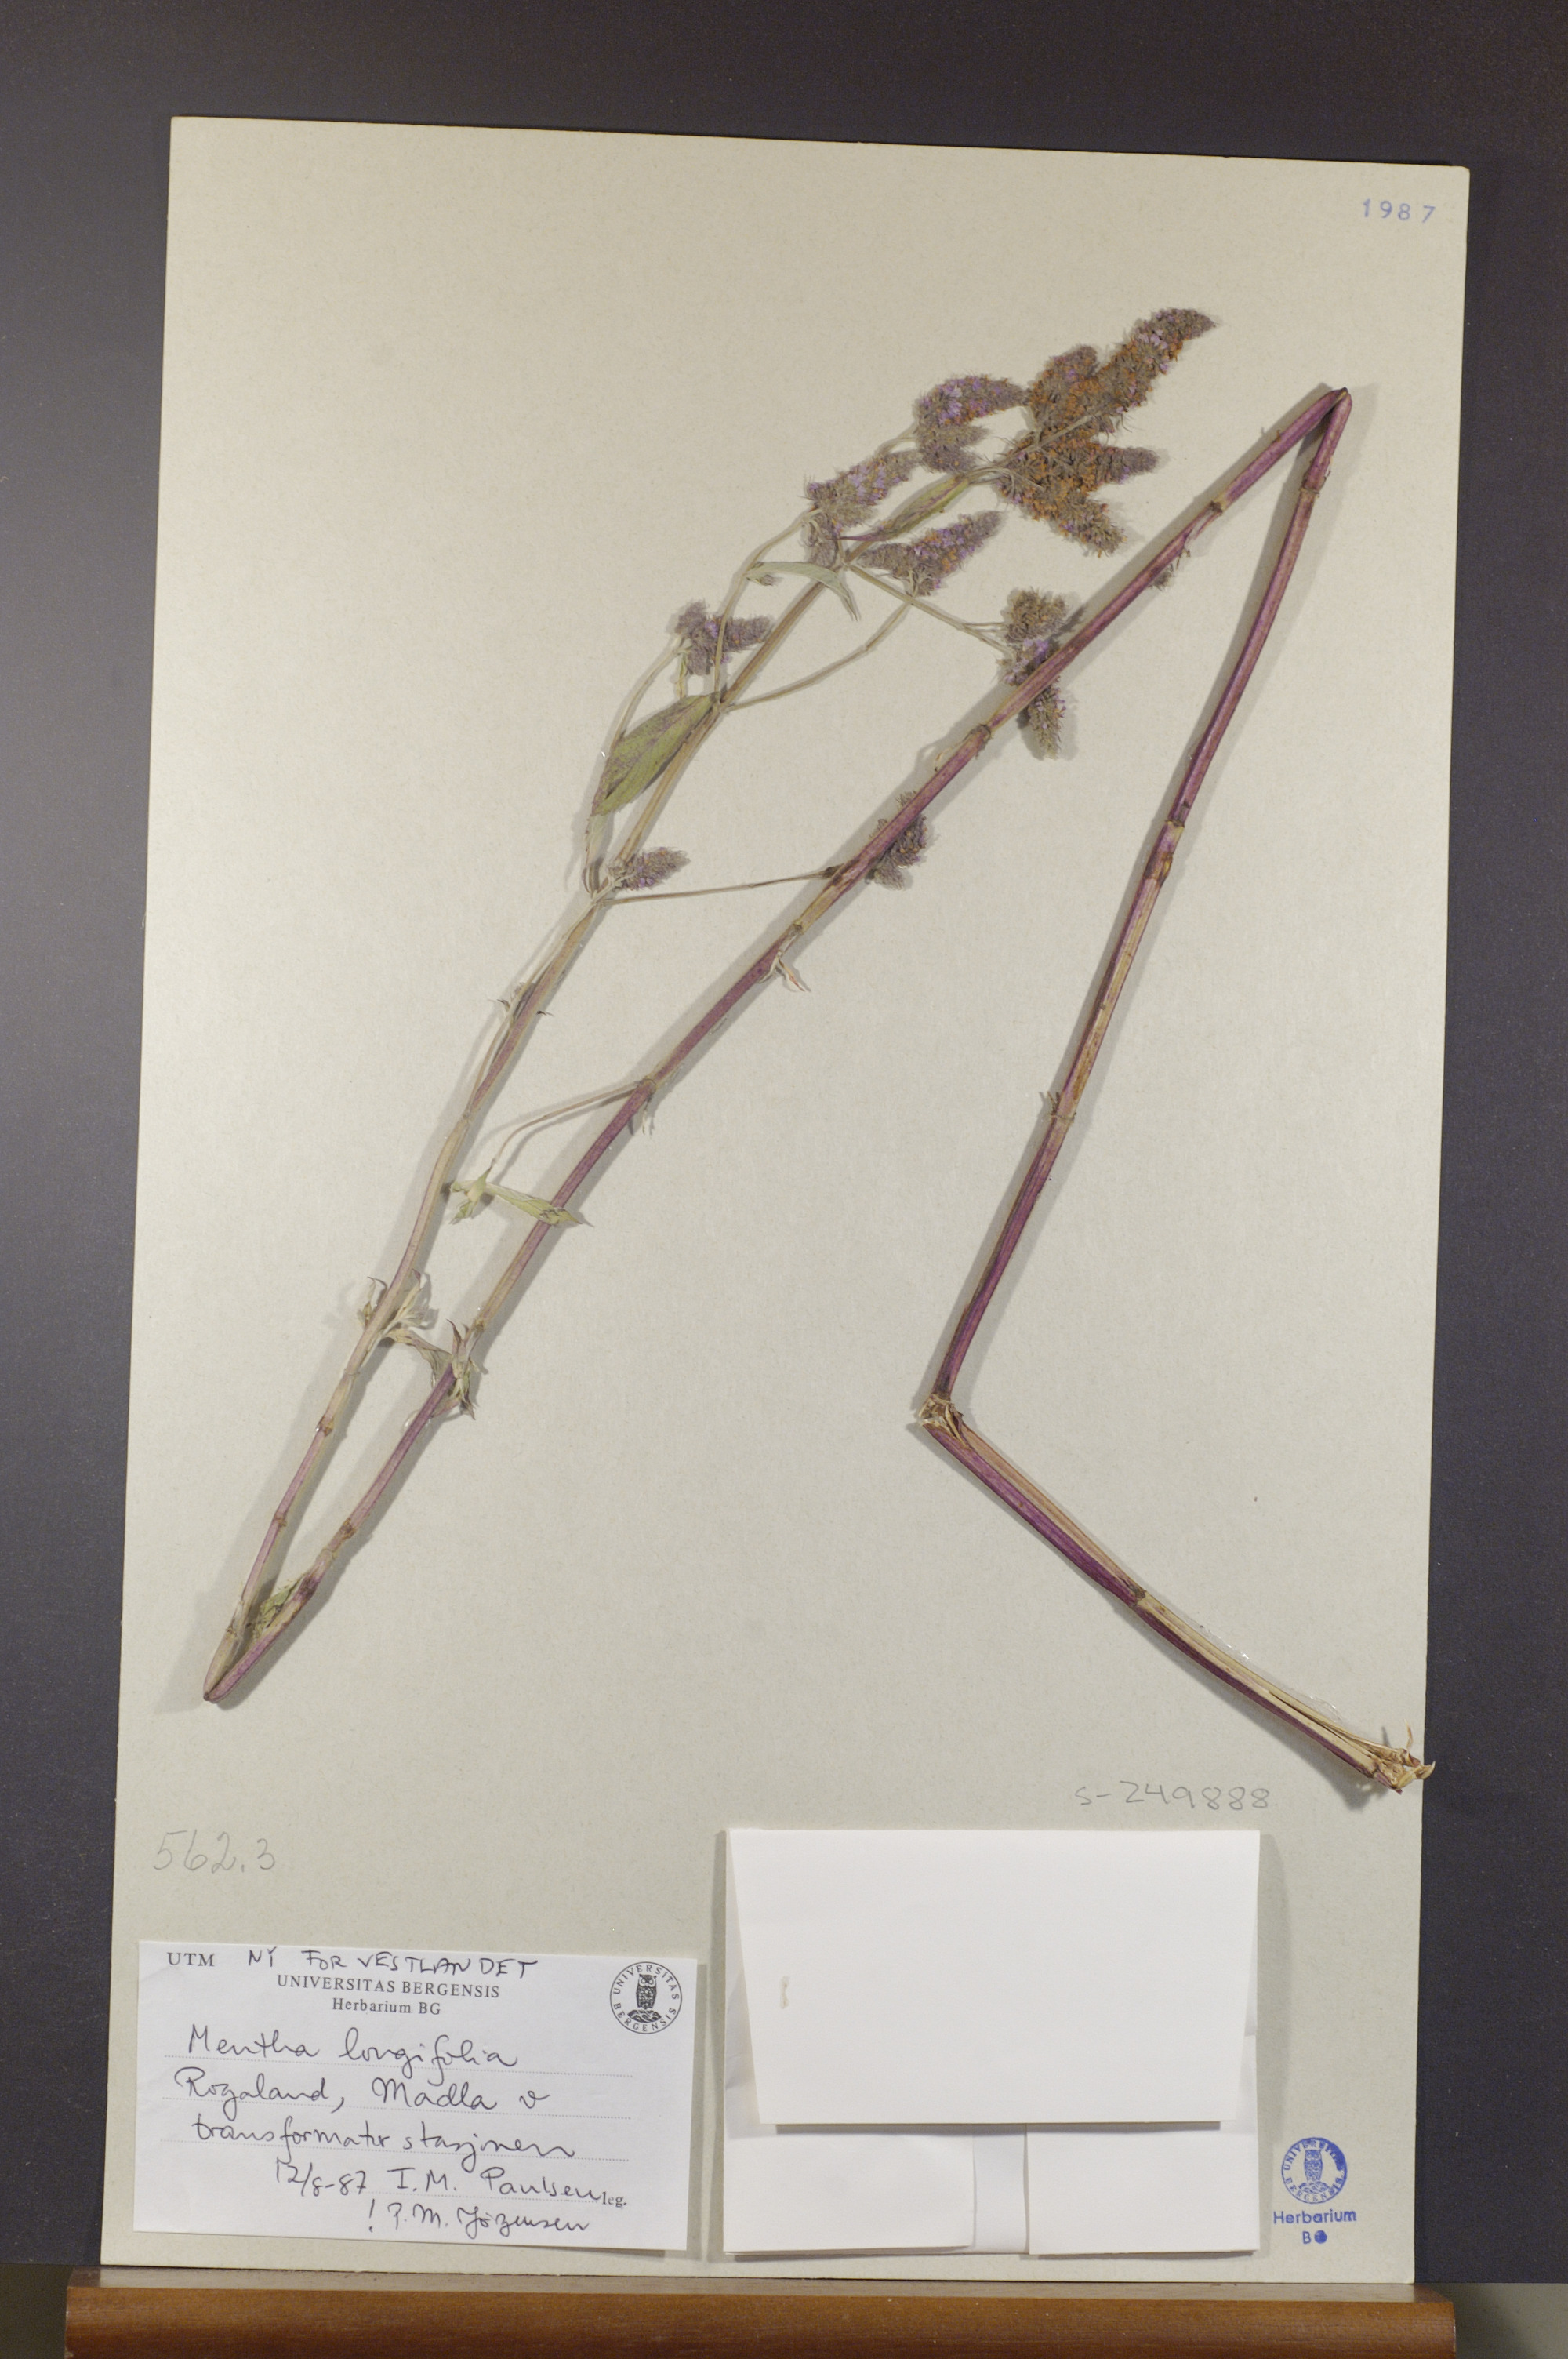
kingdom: Plantae
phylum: Tracheophyta
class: Magnoliopsida
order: Lamiales
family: Lamiaceae
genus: Mentha
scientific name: Mentha longifolia
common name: Horse mint
